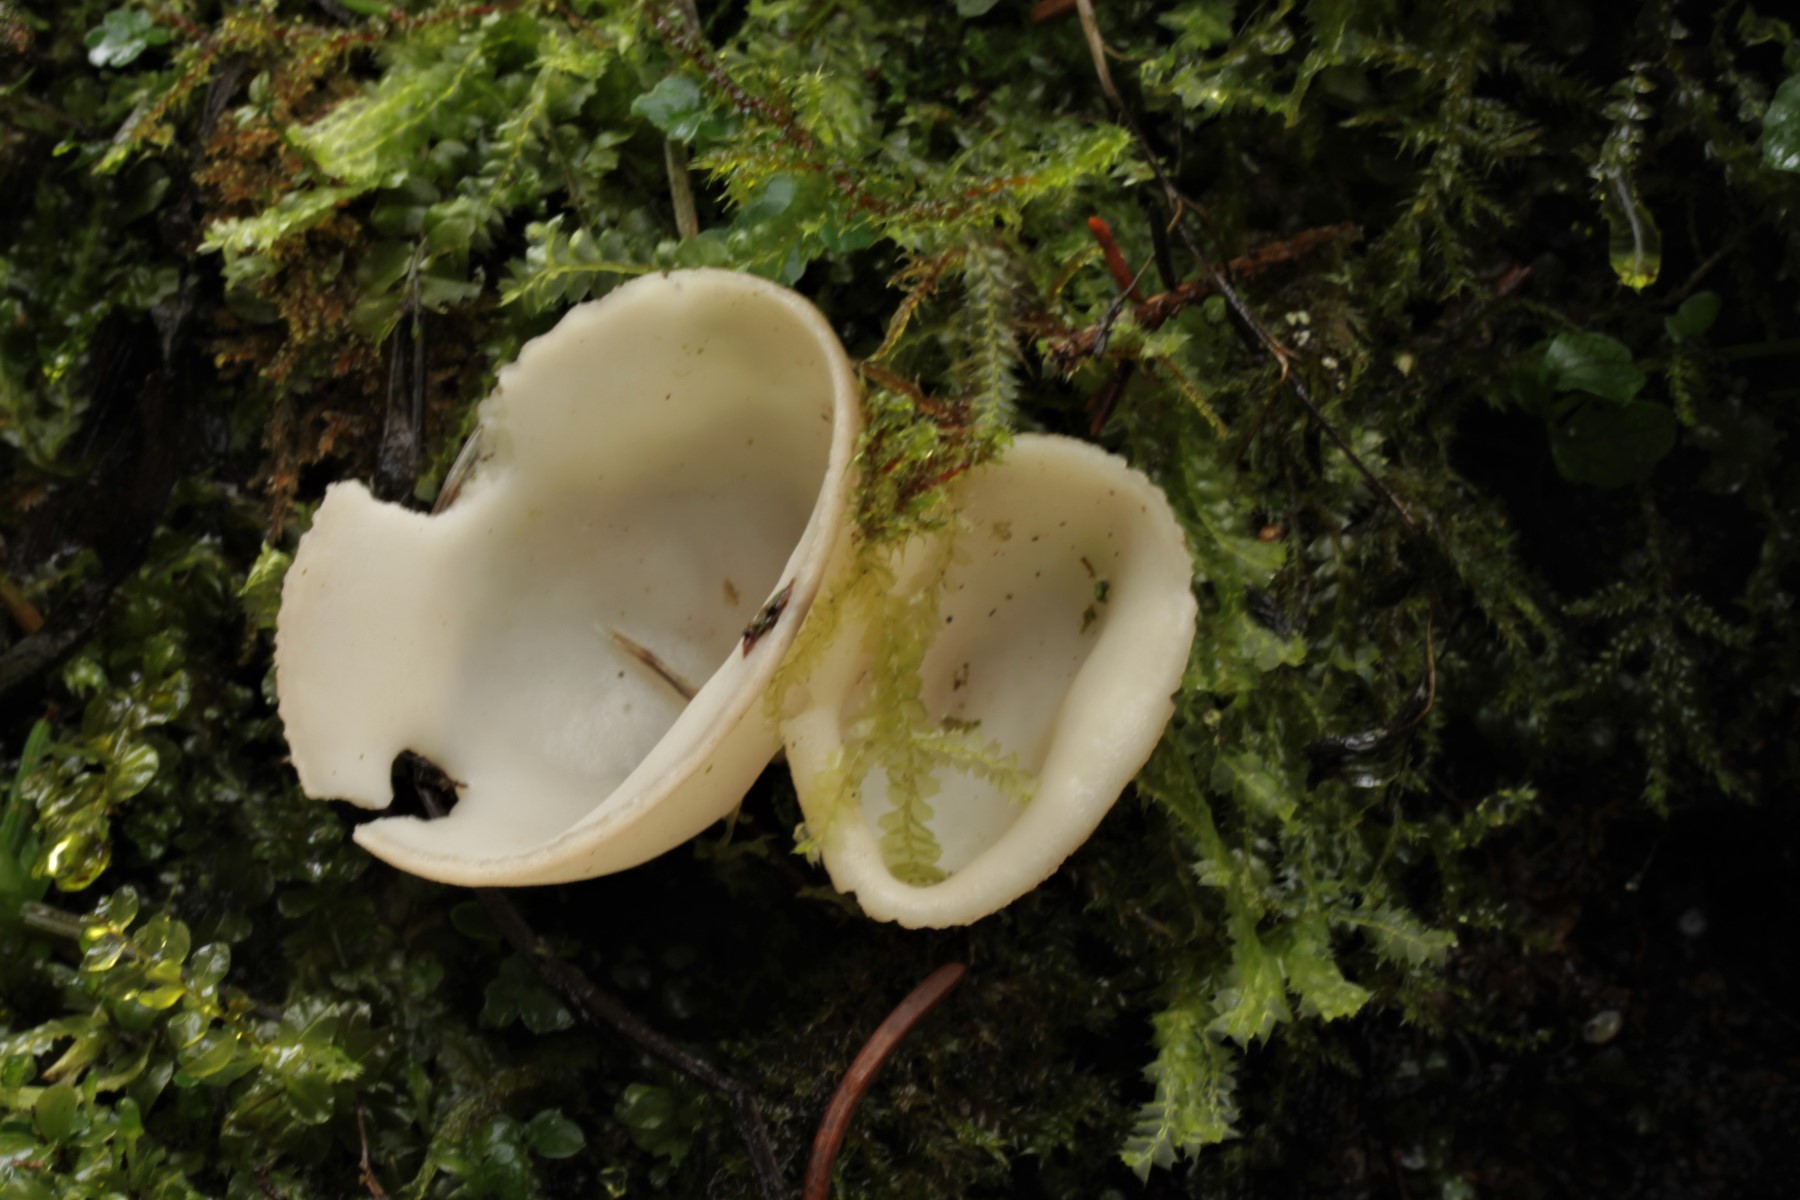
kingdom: Fungi
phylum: Ascomycota
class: Pezizomycetes
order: Pezizales
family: Helvellaceae
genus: Dissingia
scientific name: Dissingia confusa
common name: gran-foldhat
